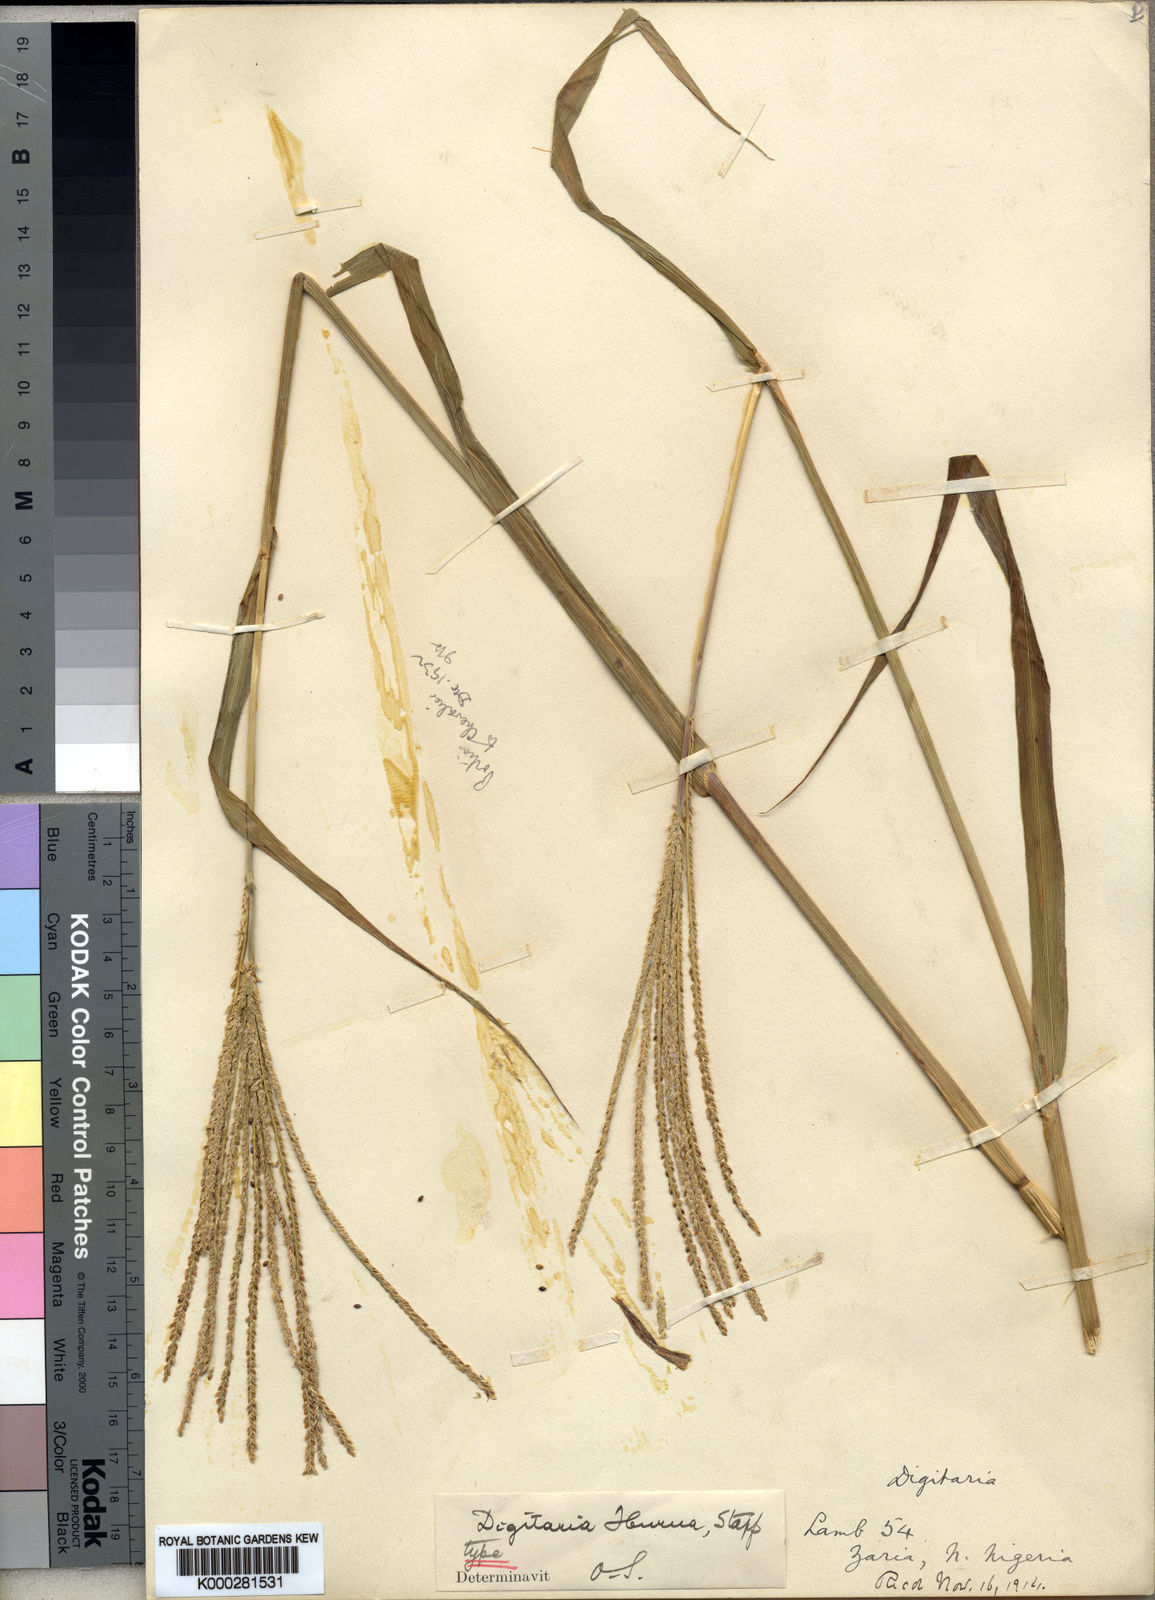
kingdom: Plantae
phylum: Tracheophyta
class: Liliopsida
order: Poales
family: Poaceae
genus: Digitaria
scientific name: Digitaria iburua
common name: Black acha
